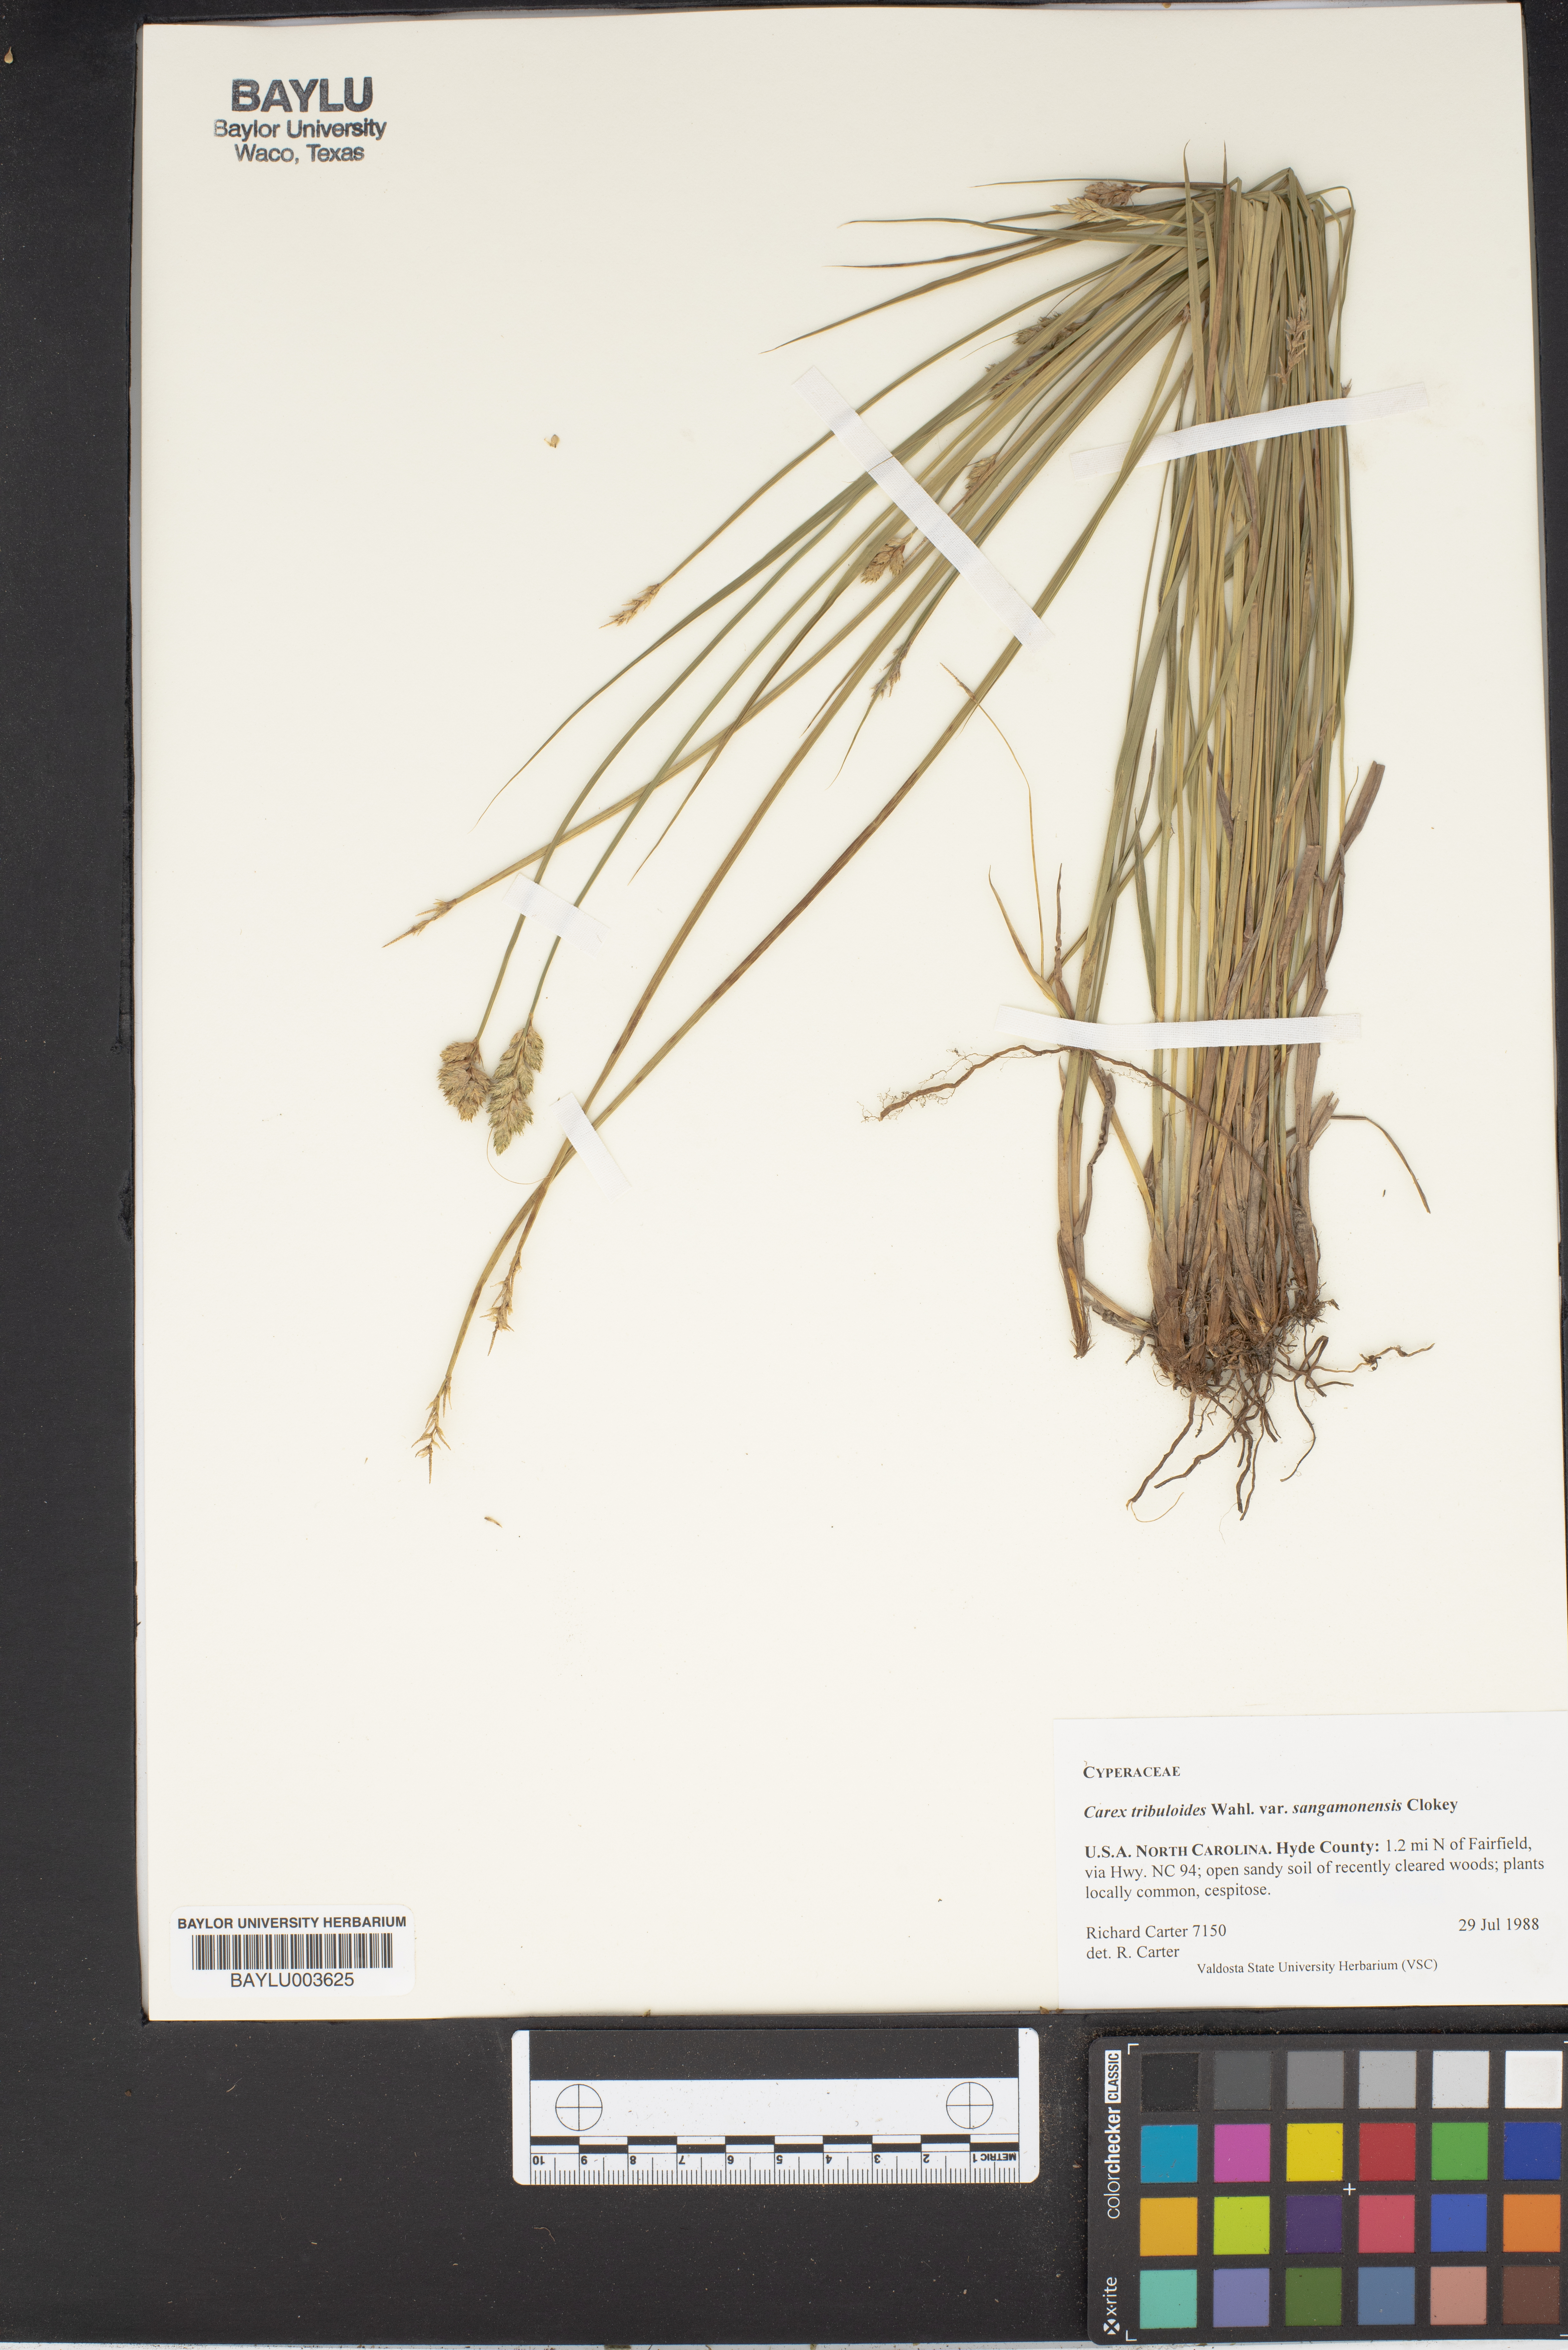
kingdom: Plantae
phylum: Tracheophyta
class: Liliopsida
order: Poales
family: Cyperaceae
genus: Carex
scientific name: Carex tribuloides
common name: Blunt broom sedge
